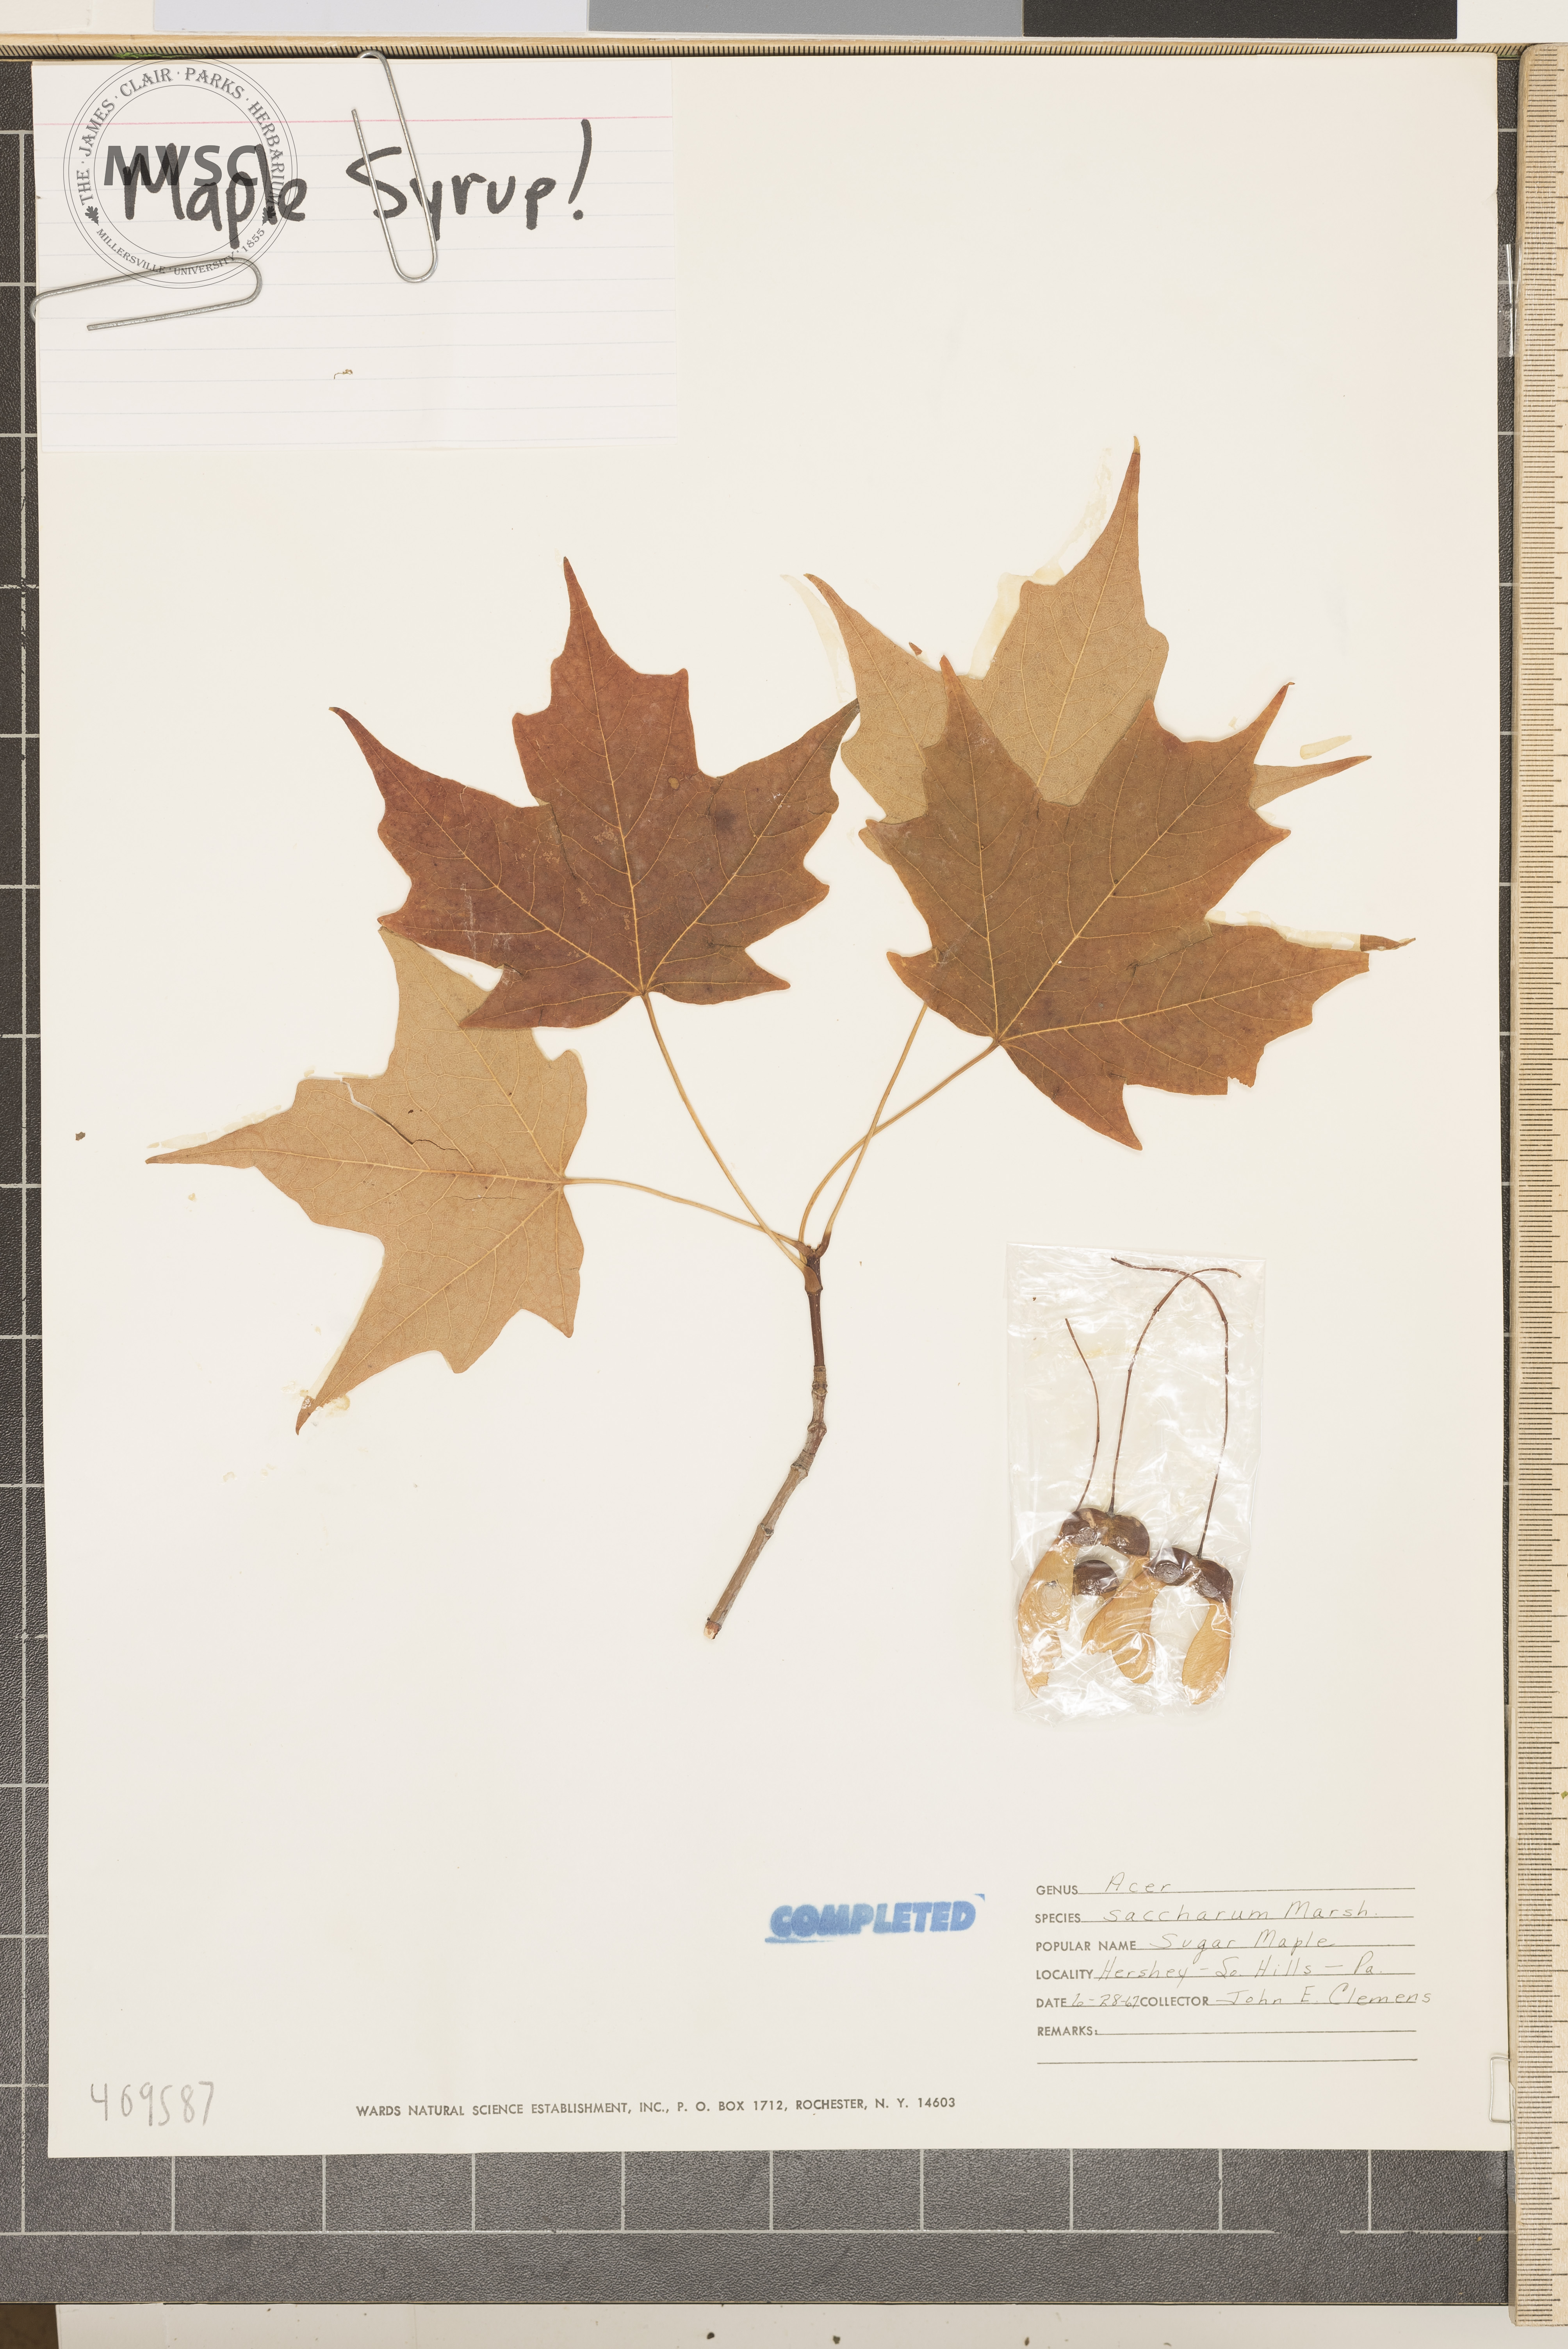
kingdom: Plantae
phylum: Tracheophyta
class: Magnoliopsida
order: Sapindales
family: Sapindaceae
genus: Acer
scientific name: Acer saccharum
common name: Sugar maple
